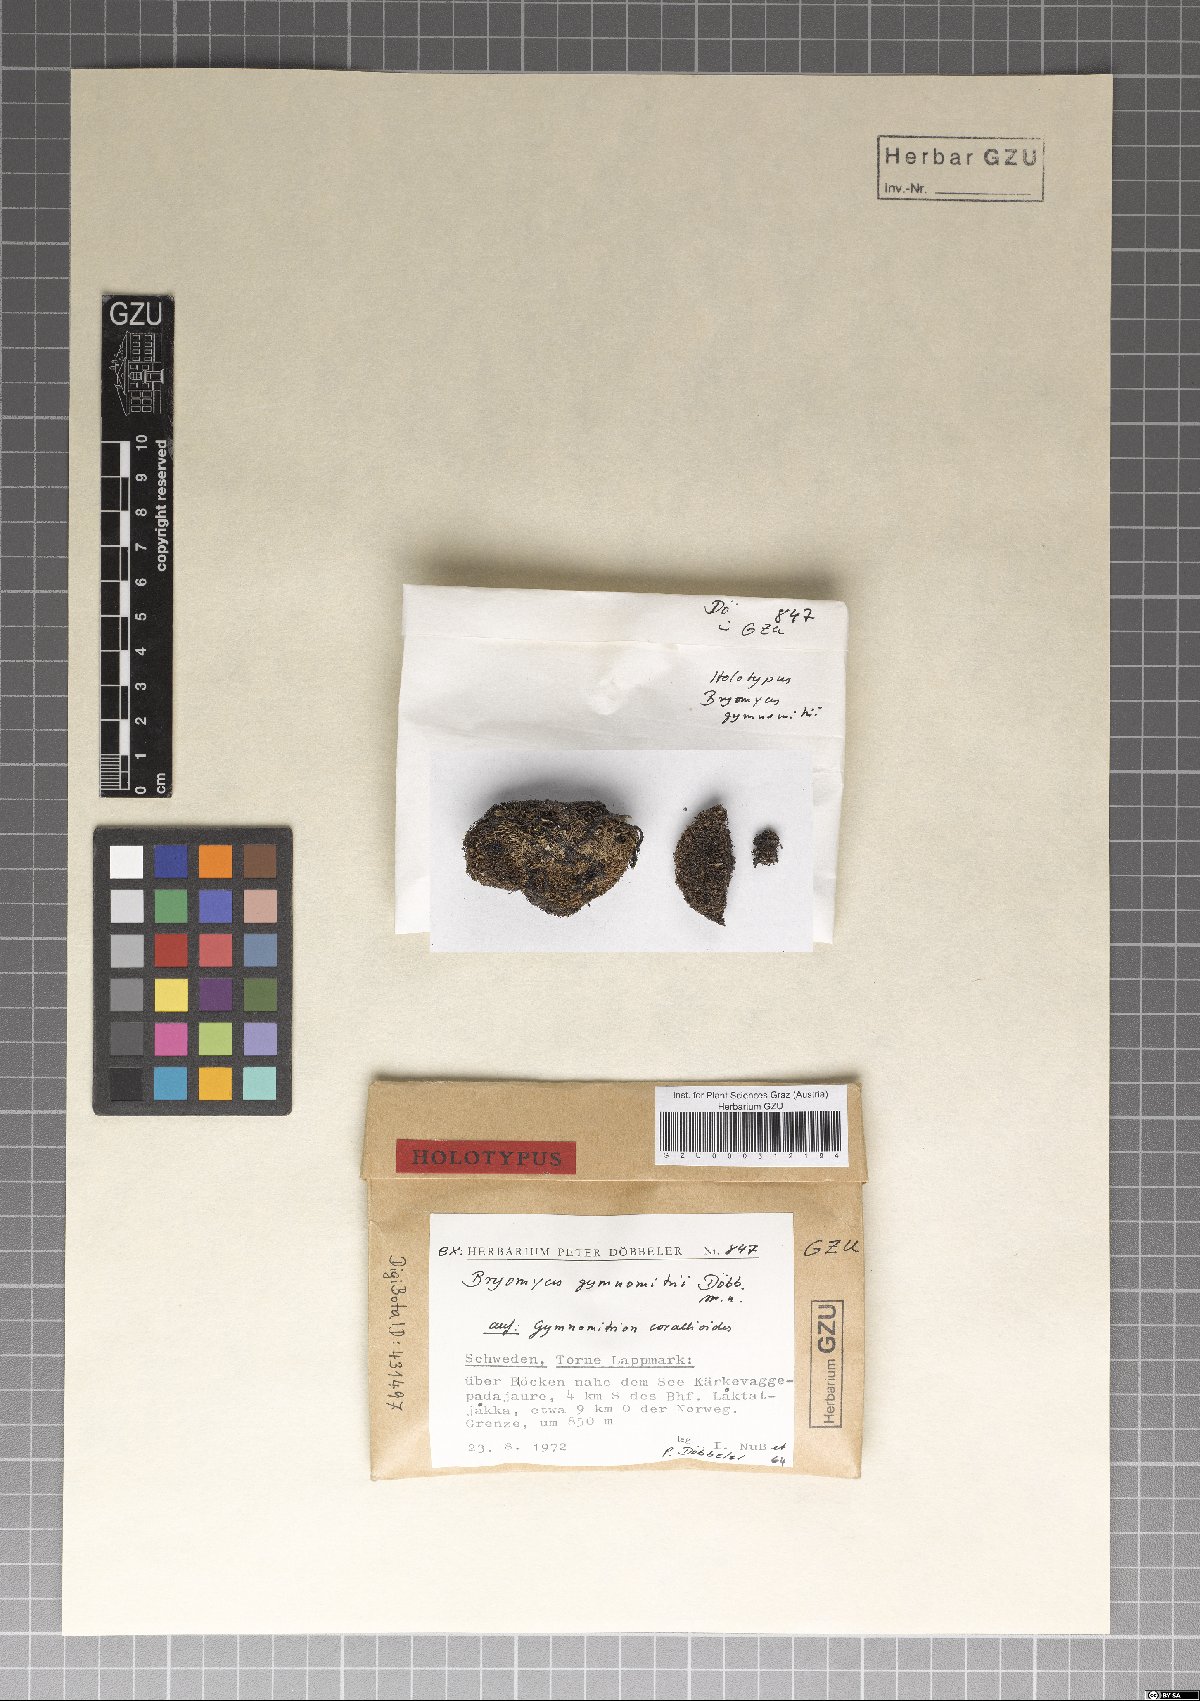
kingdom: Fungi
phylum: Ascomycota
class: Dothideomycetes
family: Pseudoperisporiaceae
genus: Bryomyces
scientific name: Bryomyces gymnomitrii
